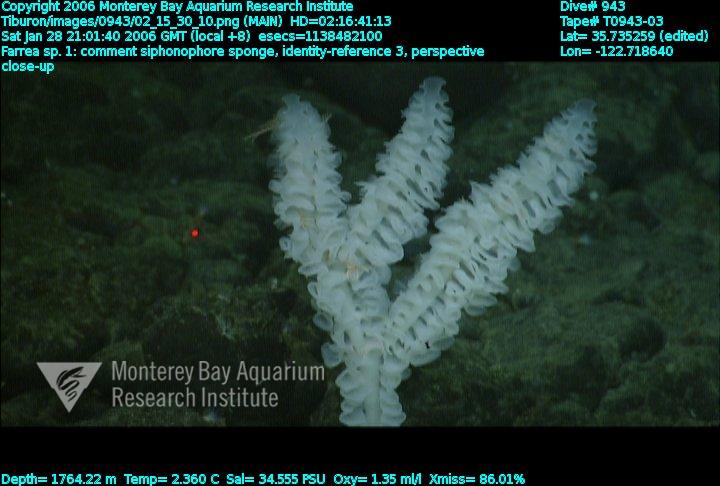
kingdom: Animalia
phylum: Porifera
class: Hexactinellida
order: Sceptrulophora
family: Farreidae
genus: Farrea
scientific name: Farrea truncata
